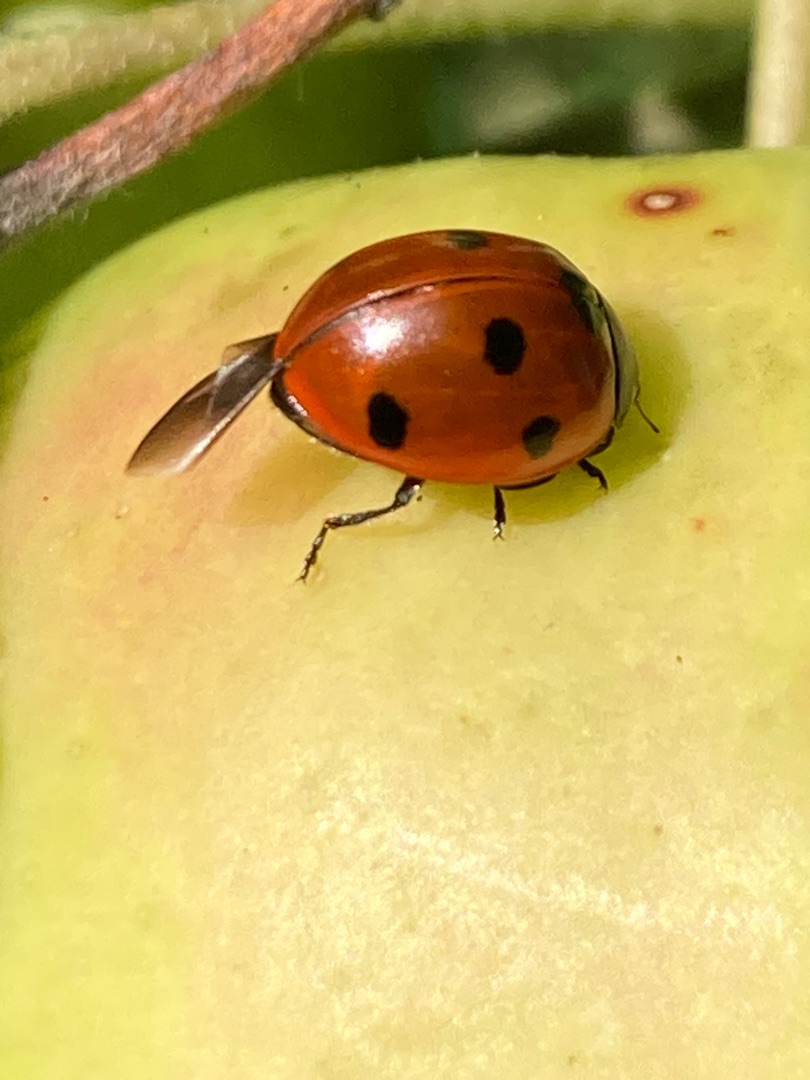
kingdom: Animalia
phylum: Arthropoda
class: Insecta
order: Coleoptera
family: Coccinellidae
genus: Coccinella
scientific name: Coccinella septempunctata
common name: Syvplettet mariehøne
